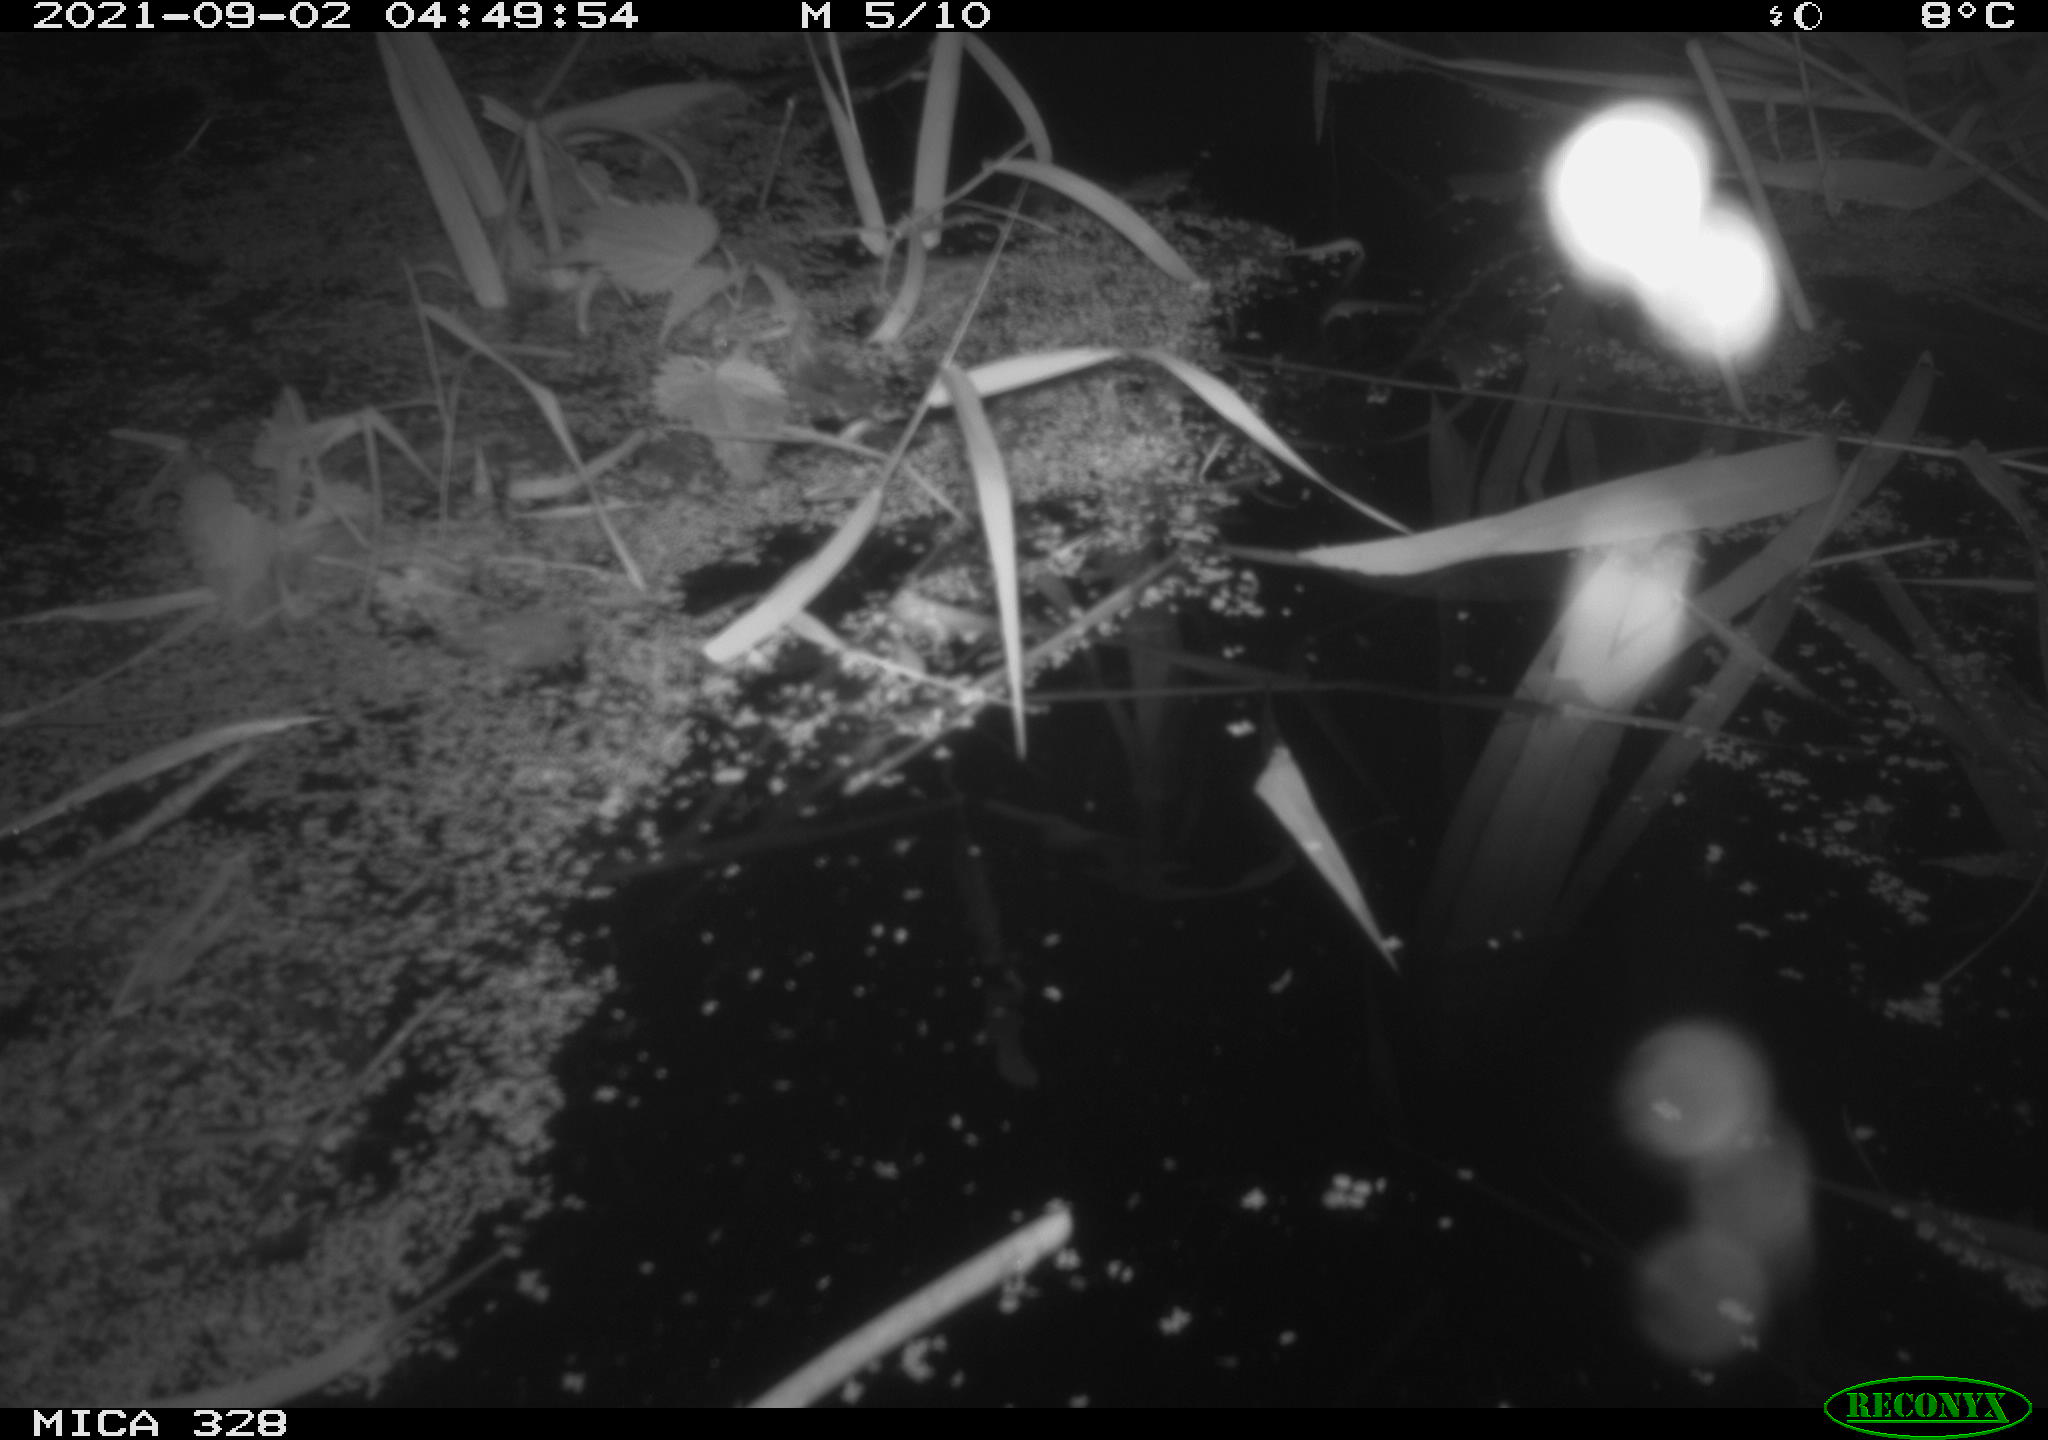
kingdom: Animalia
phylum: Chordata
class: Mammalia
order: Rodentia
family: Muridae
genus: Rattus
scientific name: Rattus norvegicus
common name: Brown rat
